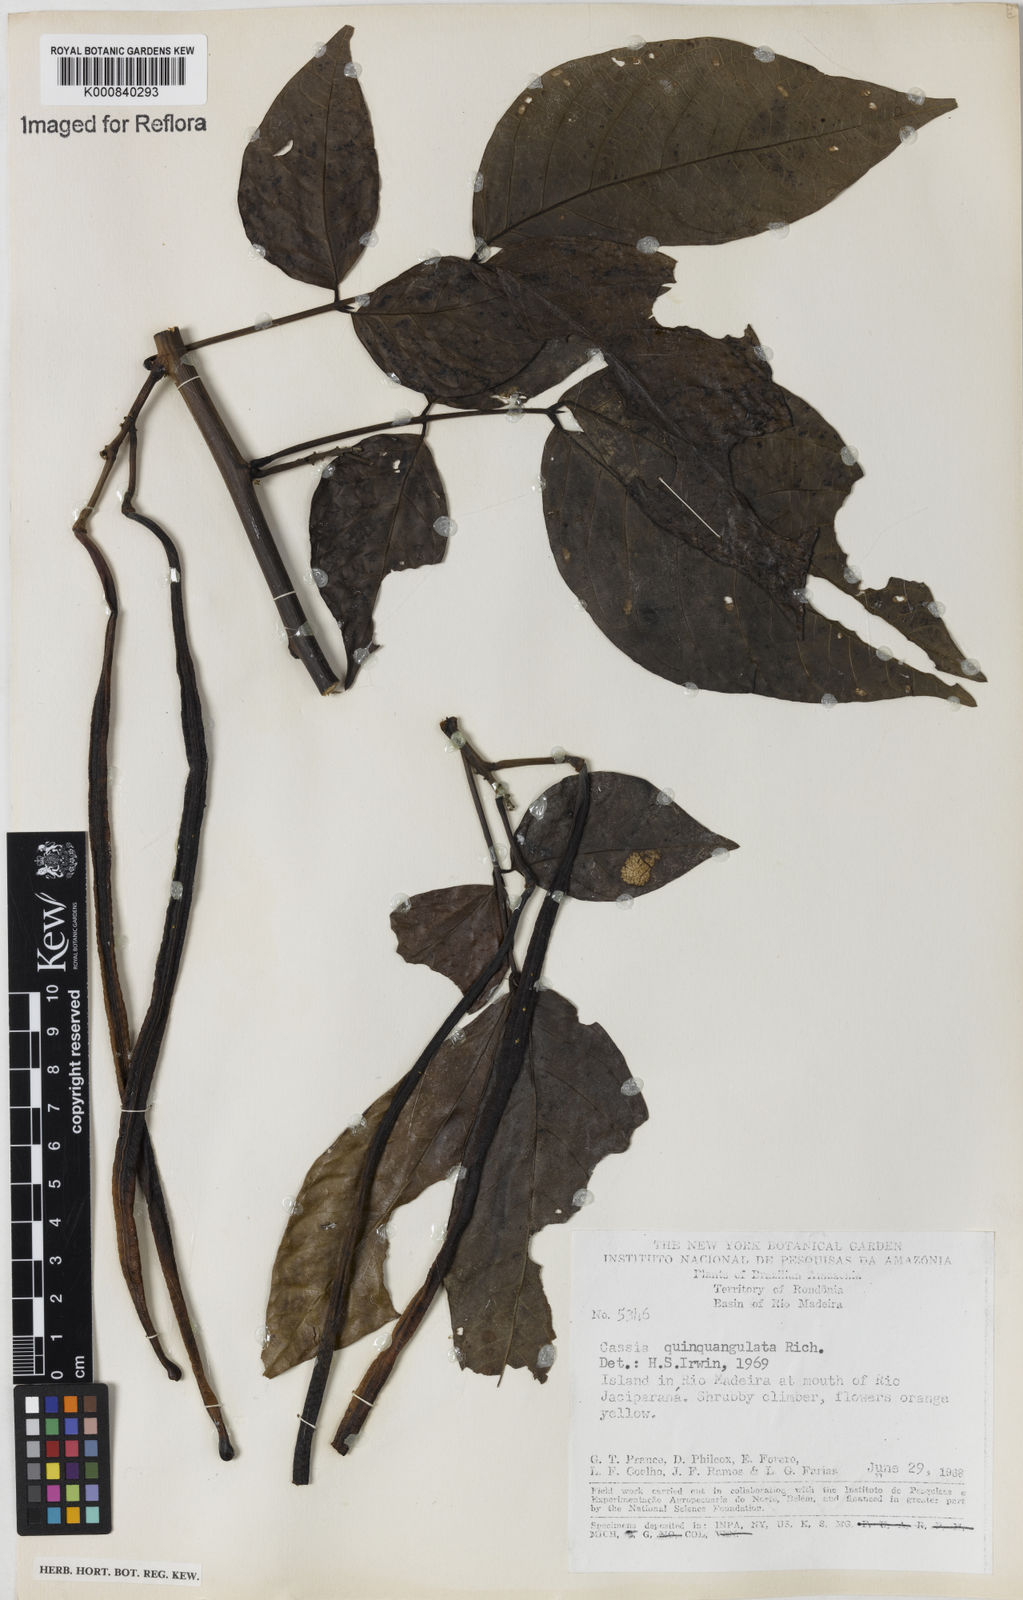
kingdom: Plantae
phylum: Tracheophyta
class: Magnoliopsida
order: Fabales
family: Fabaceae
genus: Senna
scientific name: Senna
